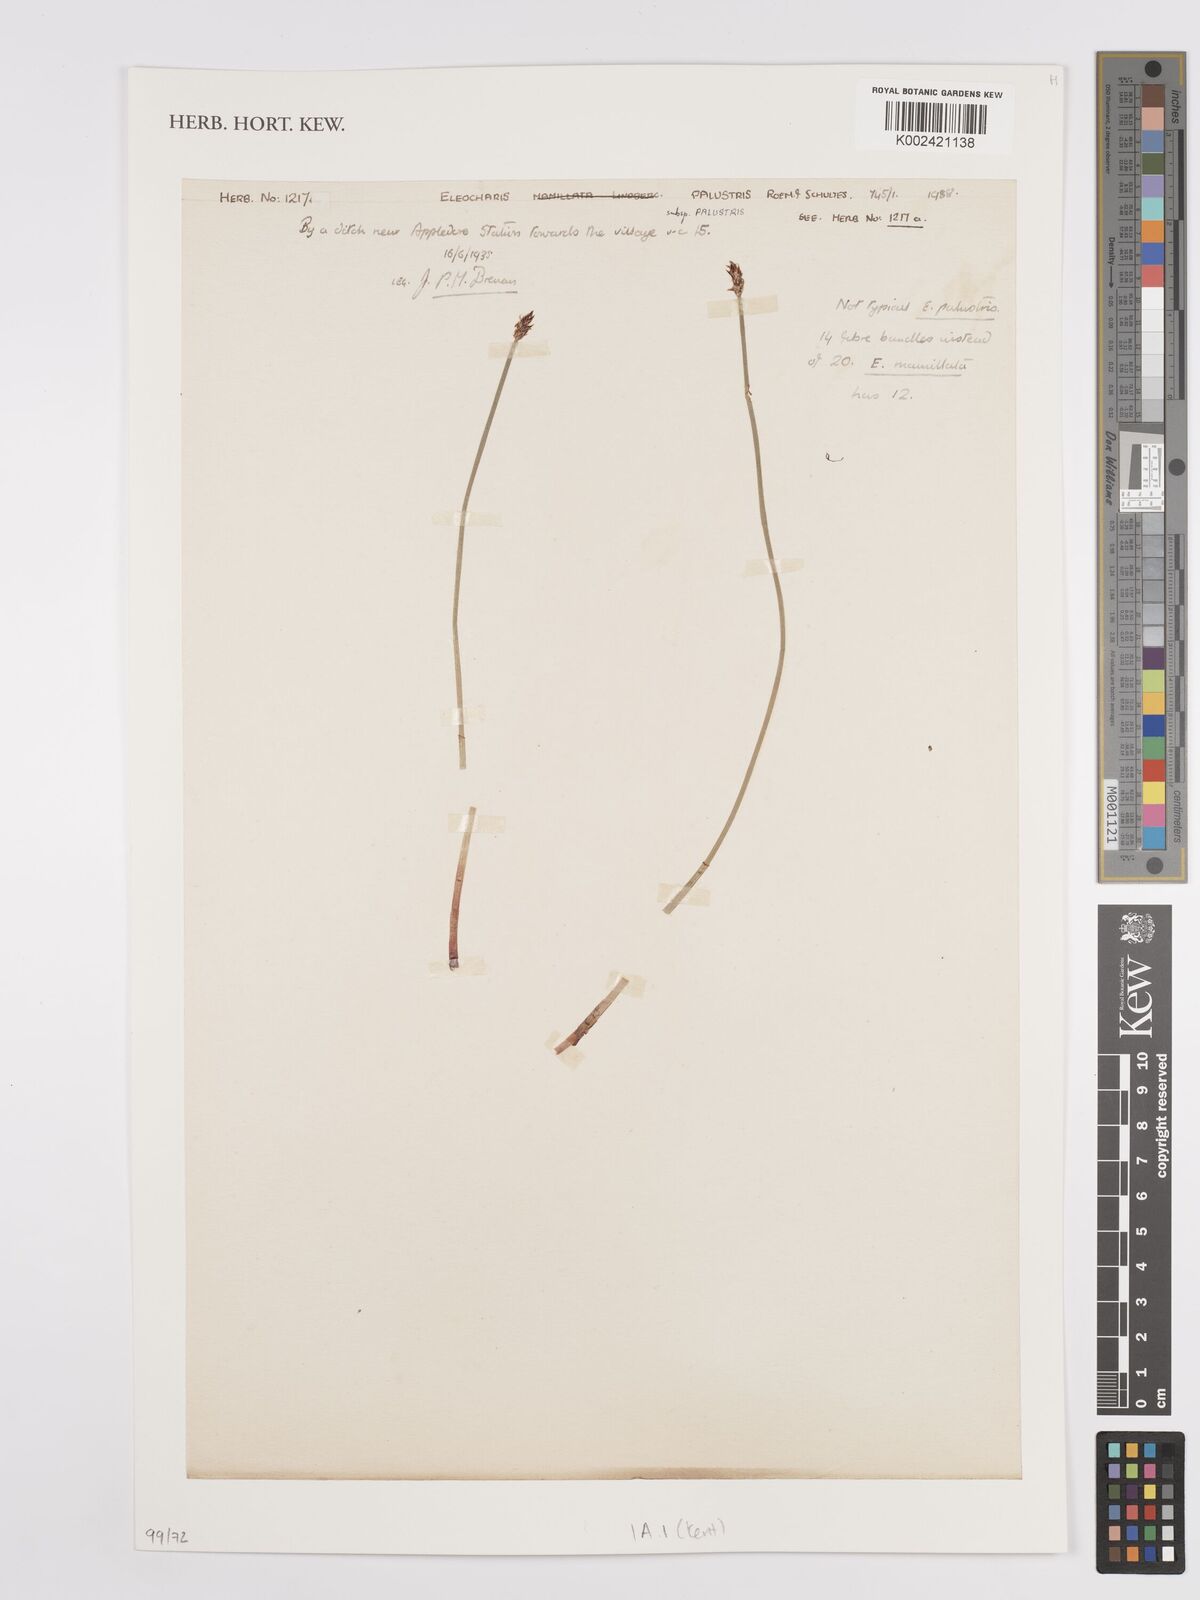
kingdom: Plantae
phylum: Tracheophyta
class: Liliopsida
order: Poales
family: Cyperaceae
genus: Eleocharis
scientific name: Eleocharis palustris
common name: Common spike-rush
